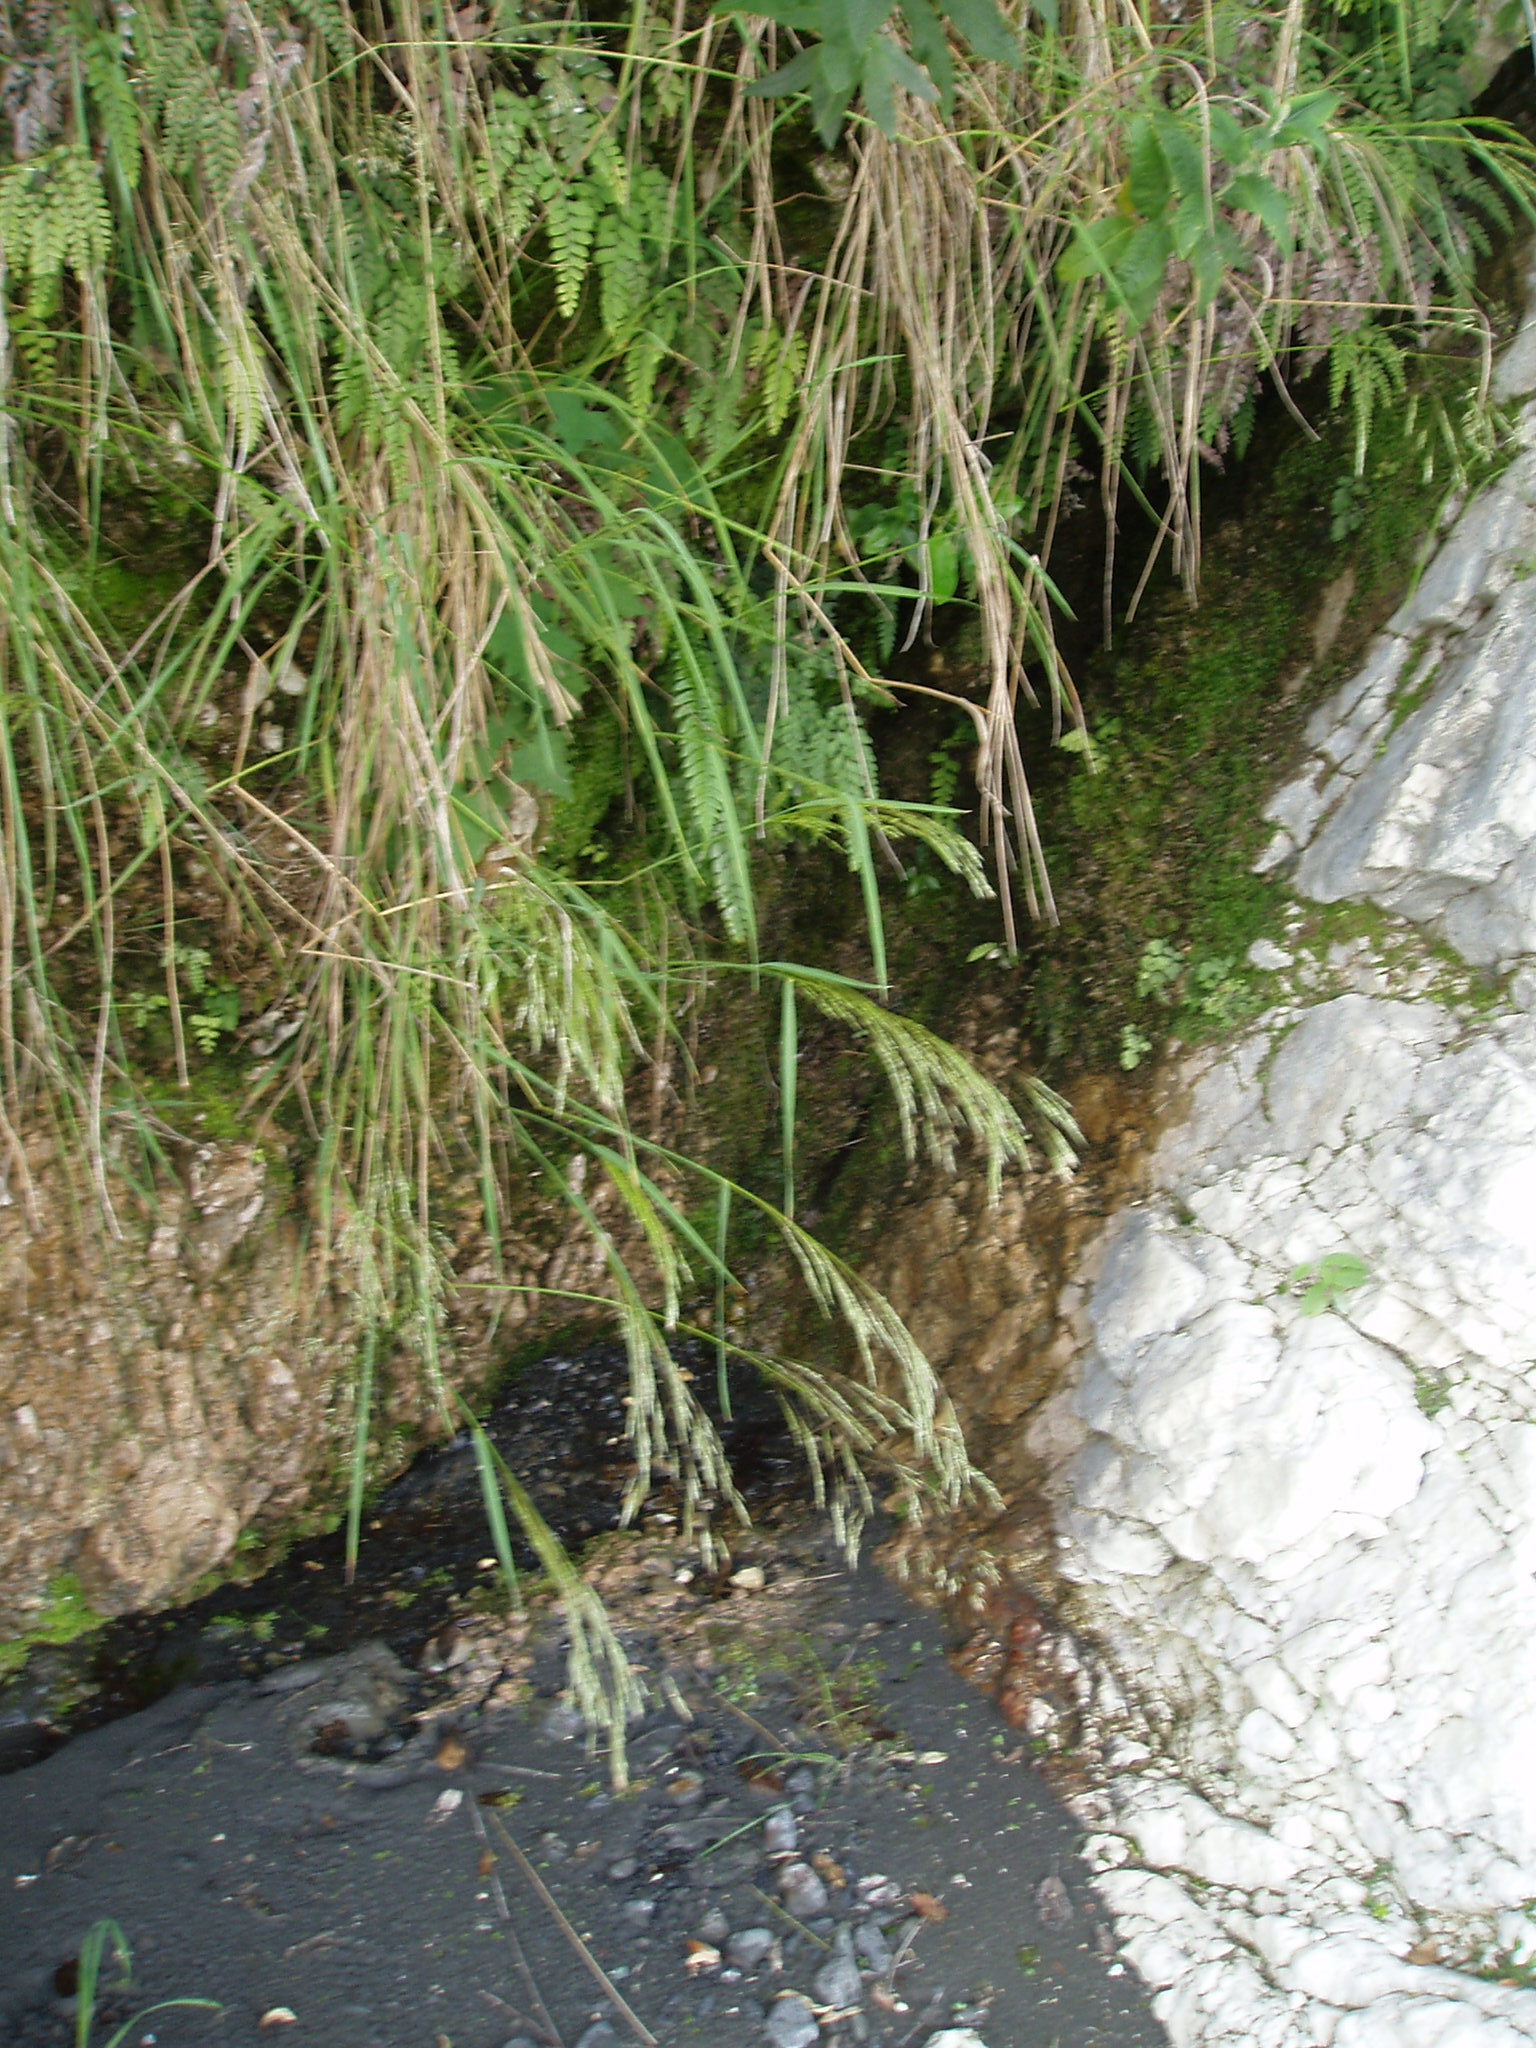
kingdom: Plantae
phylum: Tracheophyta
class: Liliopsida
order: Poales
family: Poaceae
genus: Festuca
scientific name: Festuca
